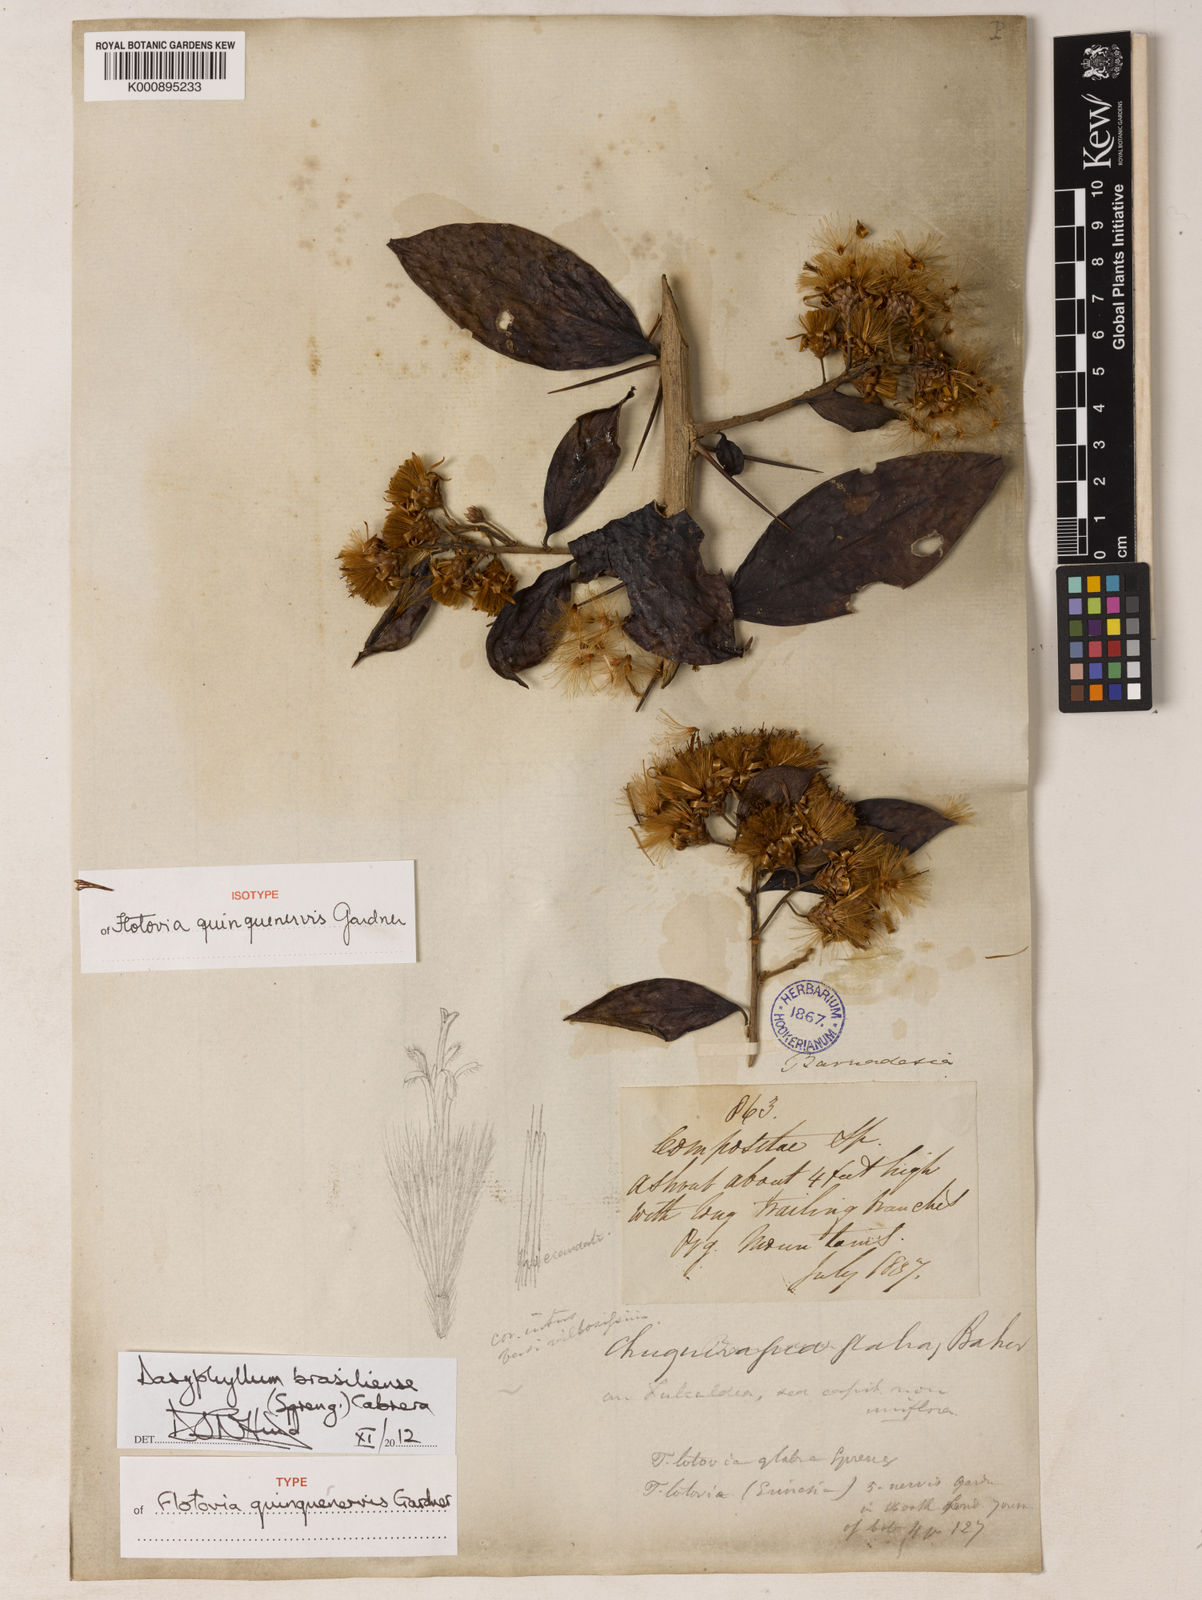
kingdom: Plantae
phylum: Tracheophyta
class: Magnoliopsida
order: Asterales
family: Asteraceae
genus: Dasyphyllum
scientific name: Dasyphyllum brasiliense
